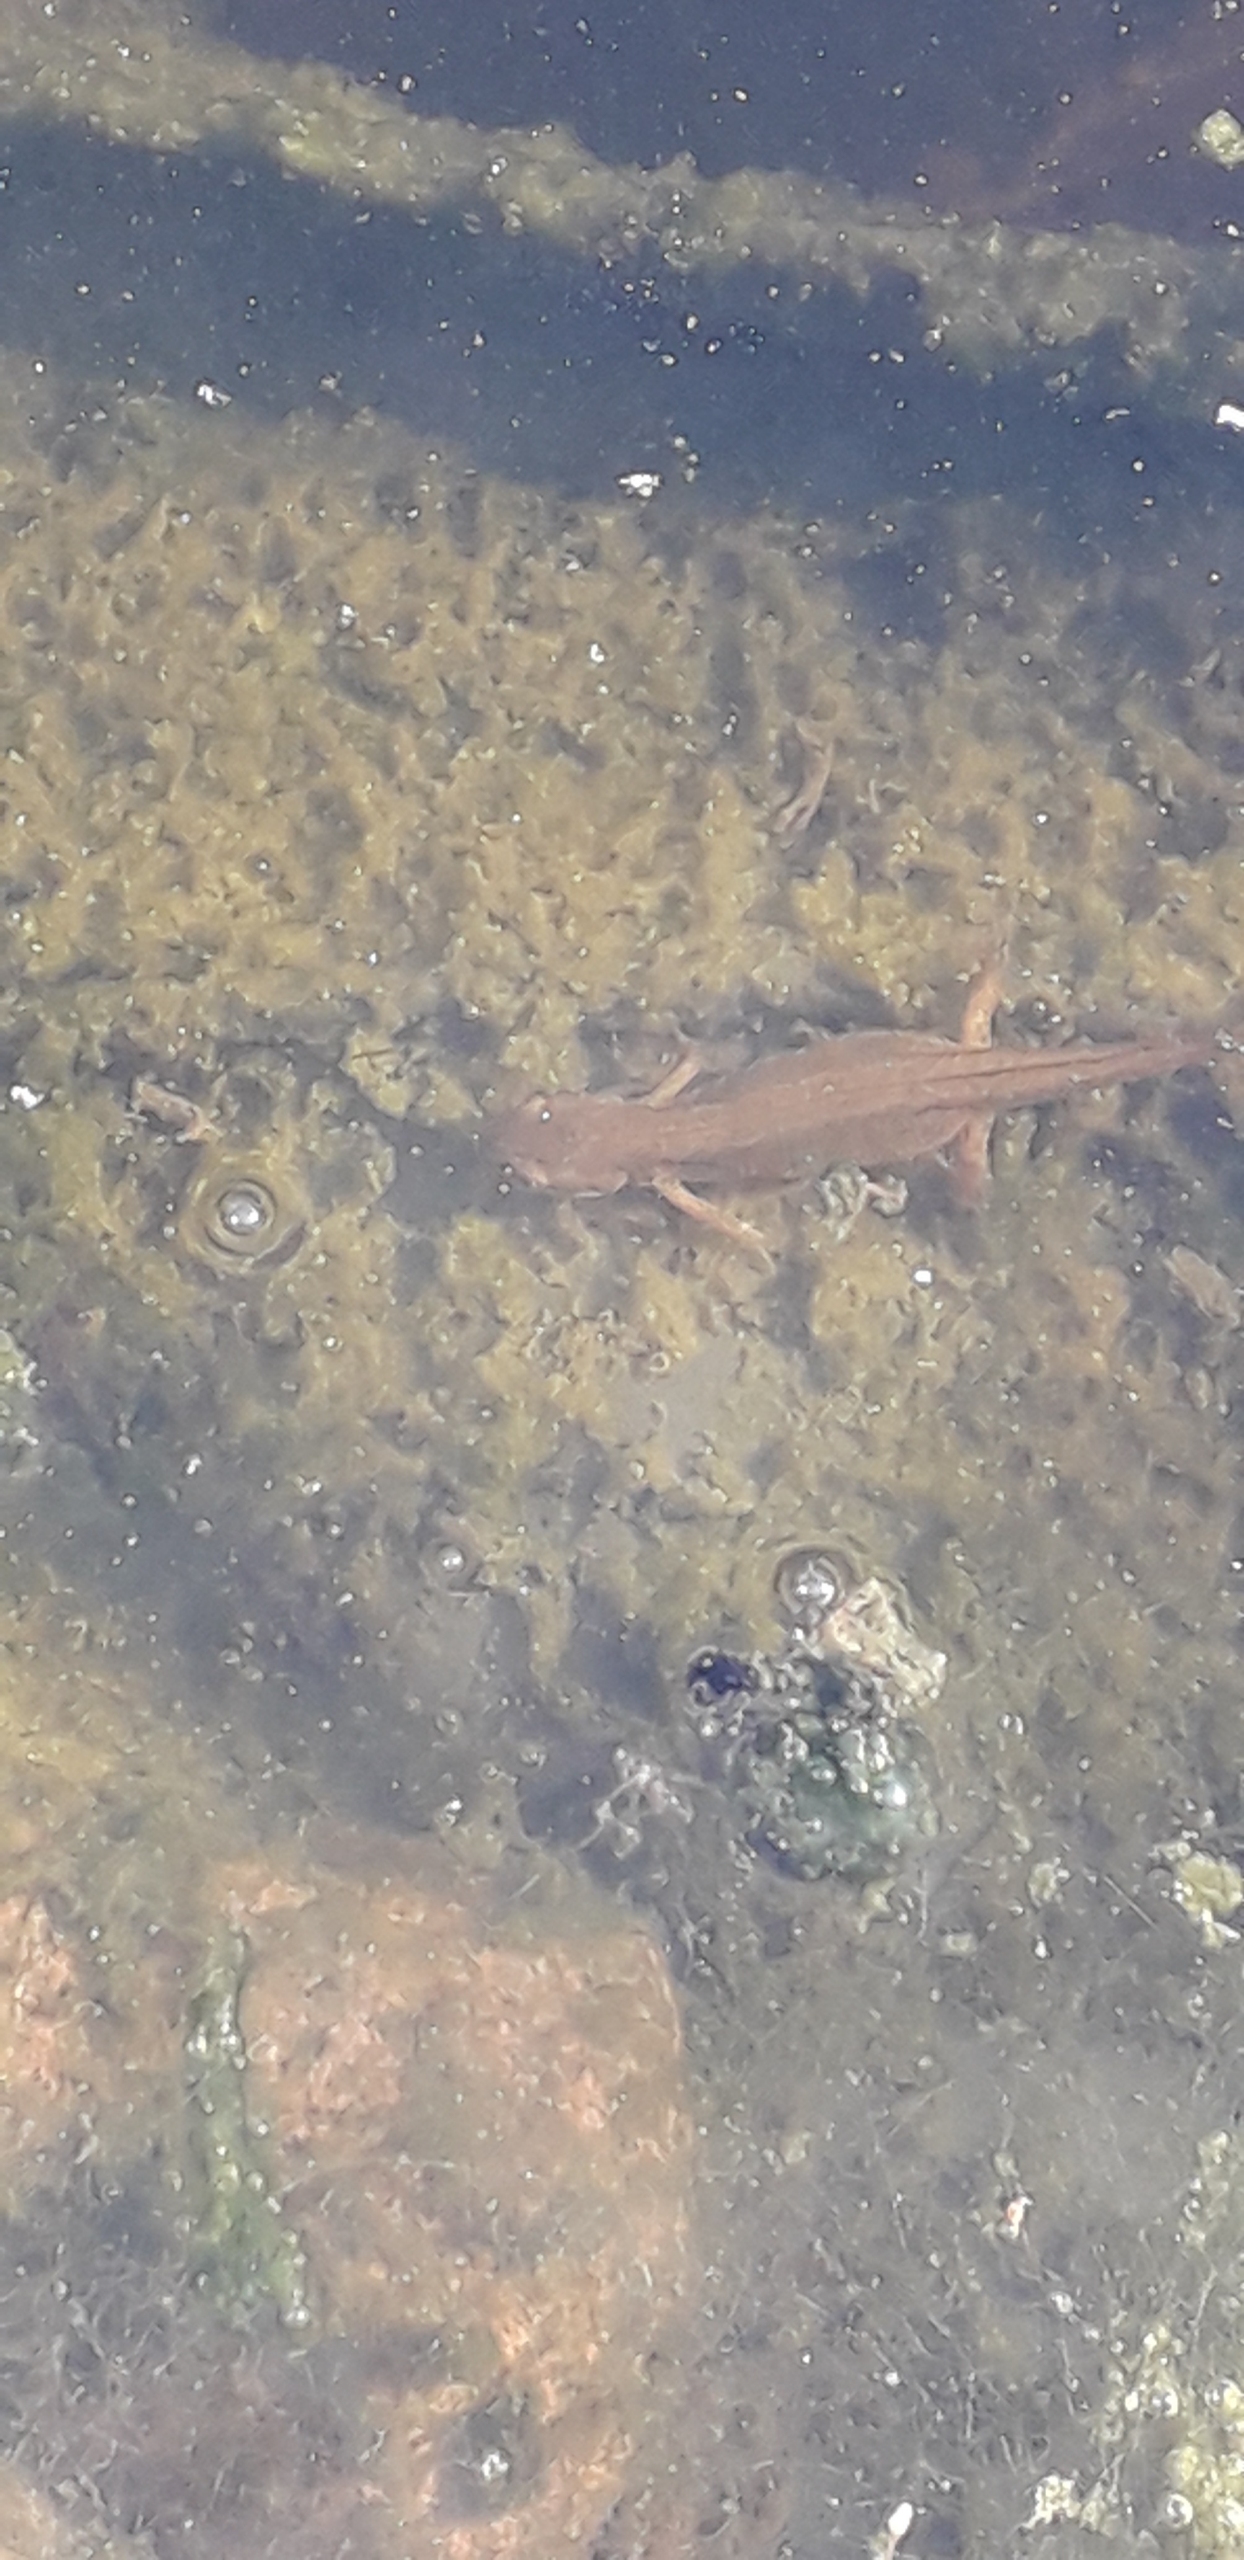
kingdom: Animalia
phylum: Chordata
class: Amphibia
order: Caudata
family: Salamandridae
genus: Lissotriton
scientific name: Lissotriton vulgaris
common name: Lille vandsalamander
